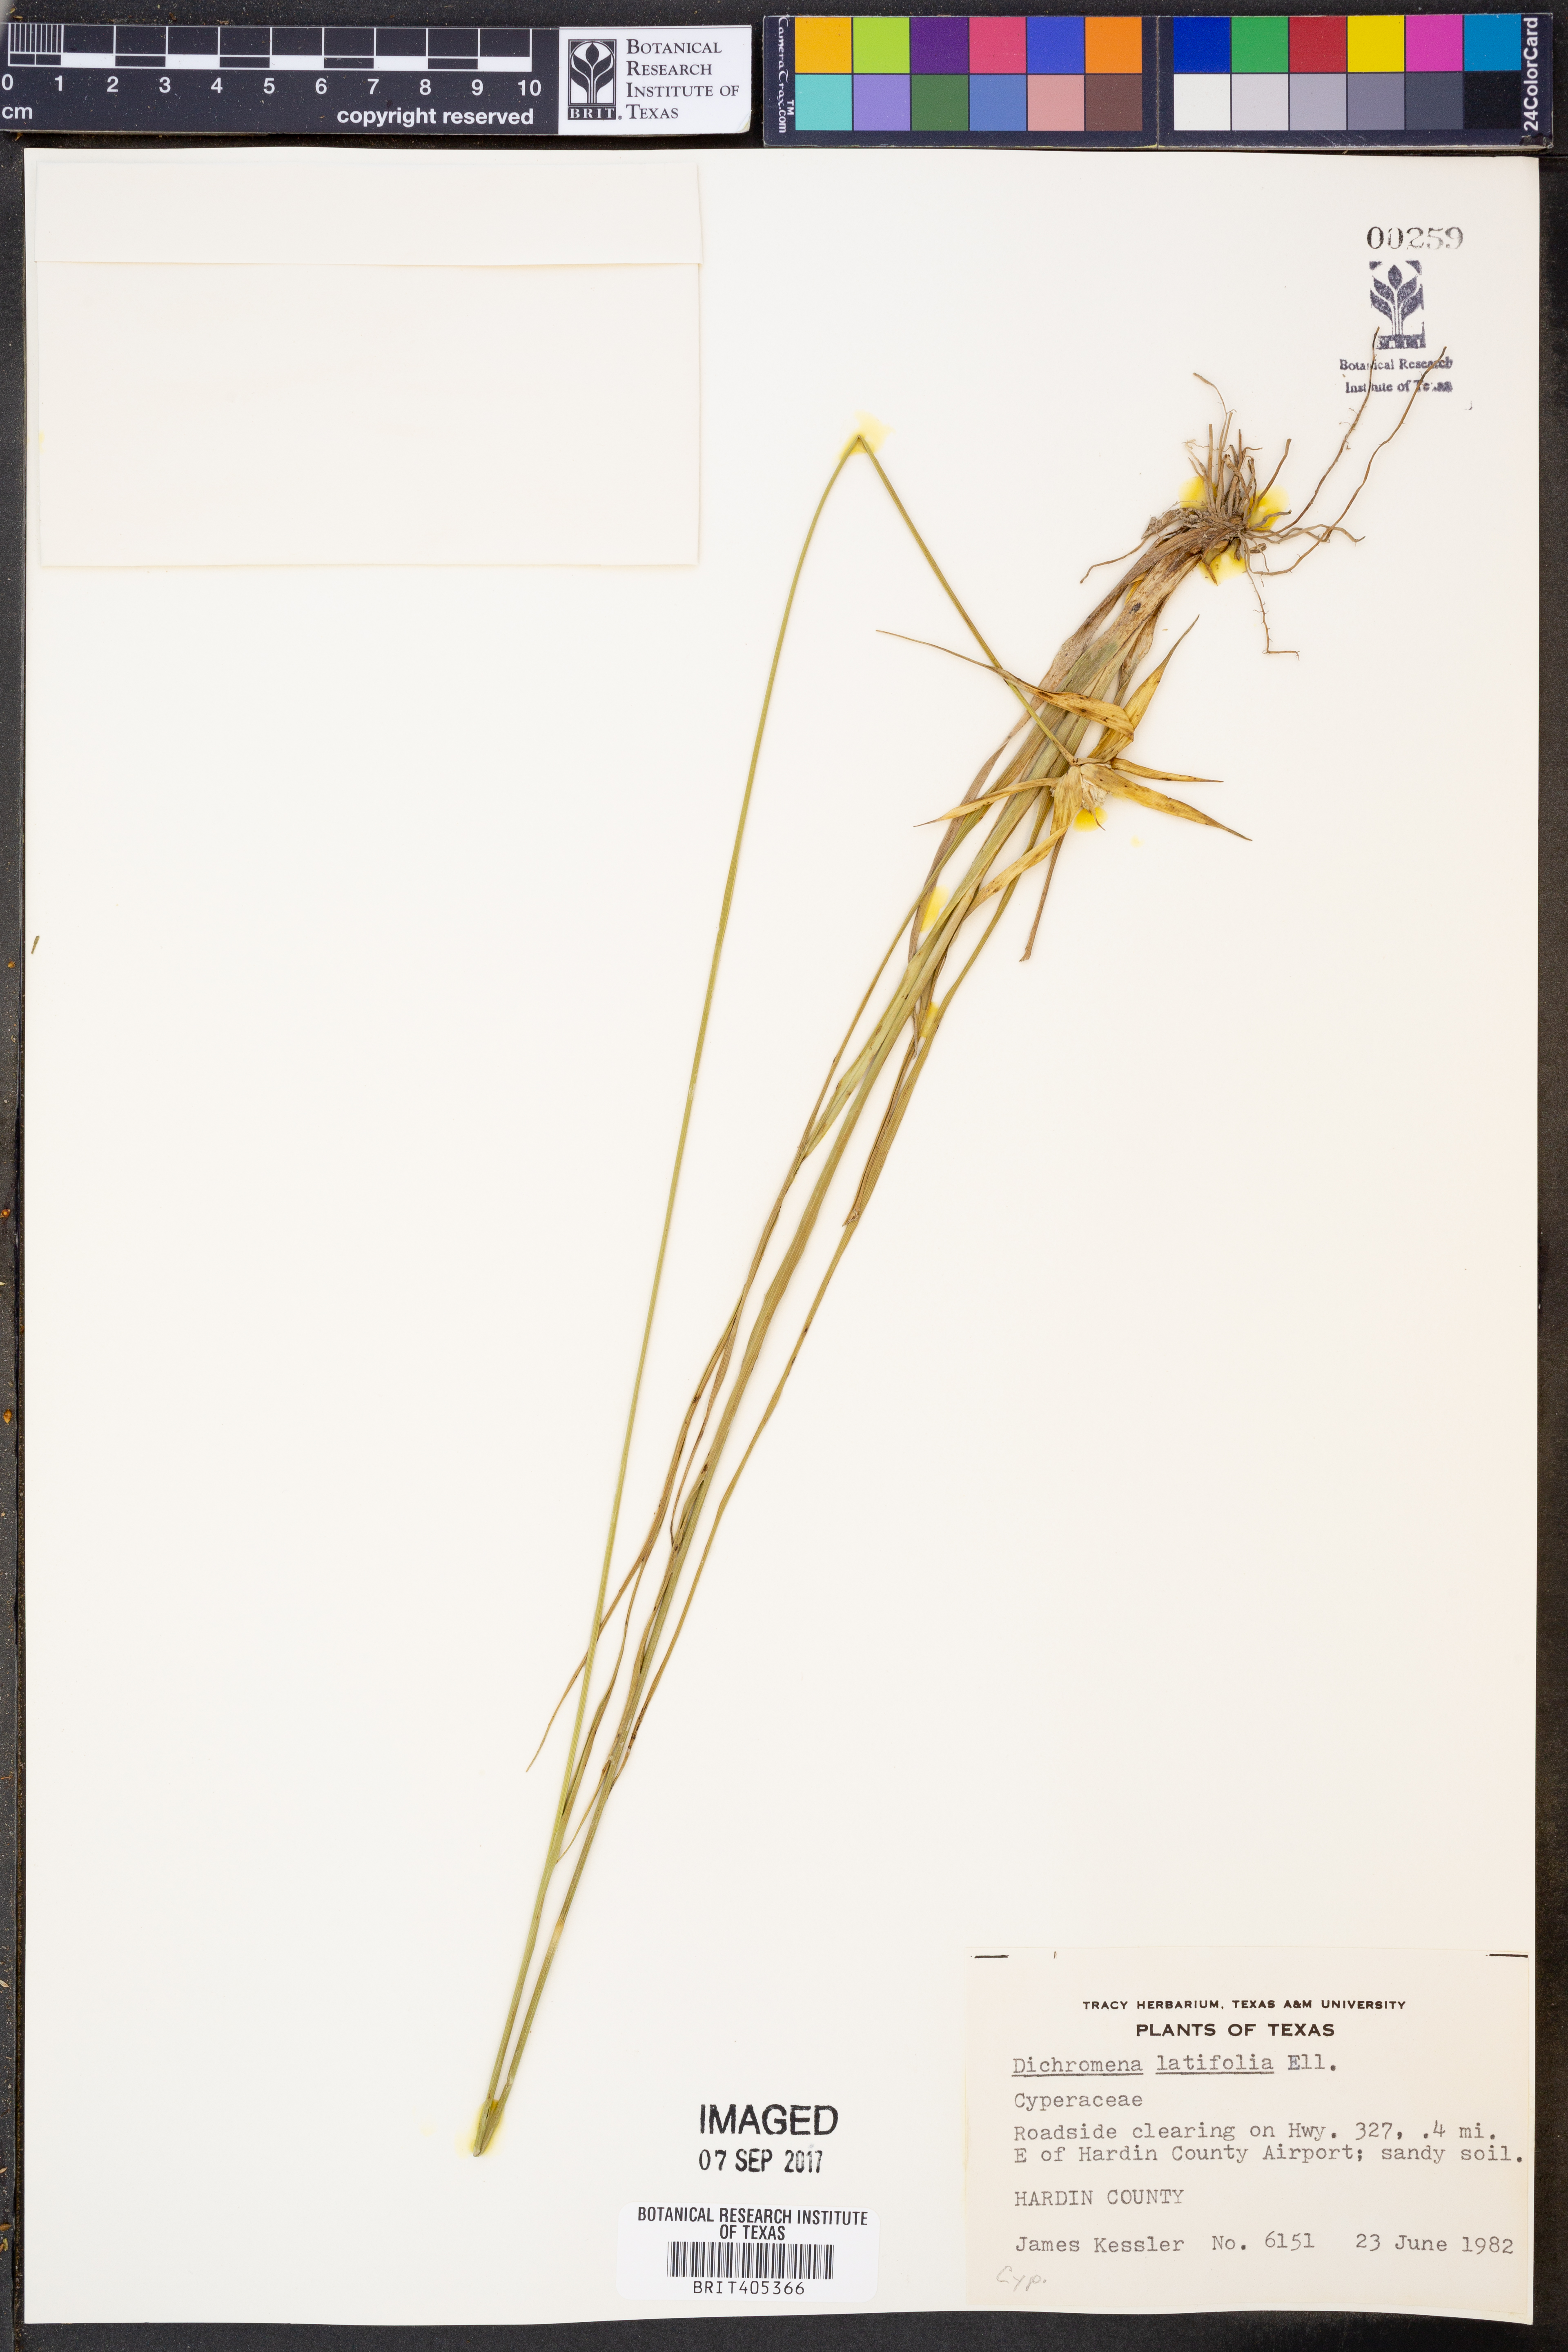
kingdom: Plantae
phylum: Tracheophyta
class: Liliopsida
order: Poales
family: Cyperaceae
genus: Rhynchospora
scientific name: Rhynchospora latifolia
